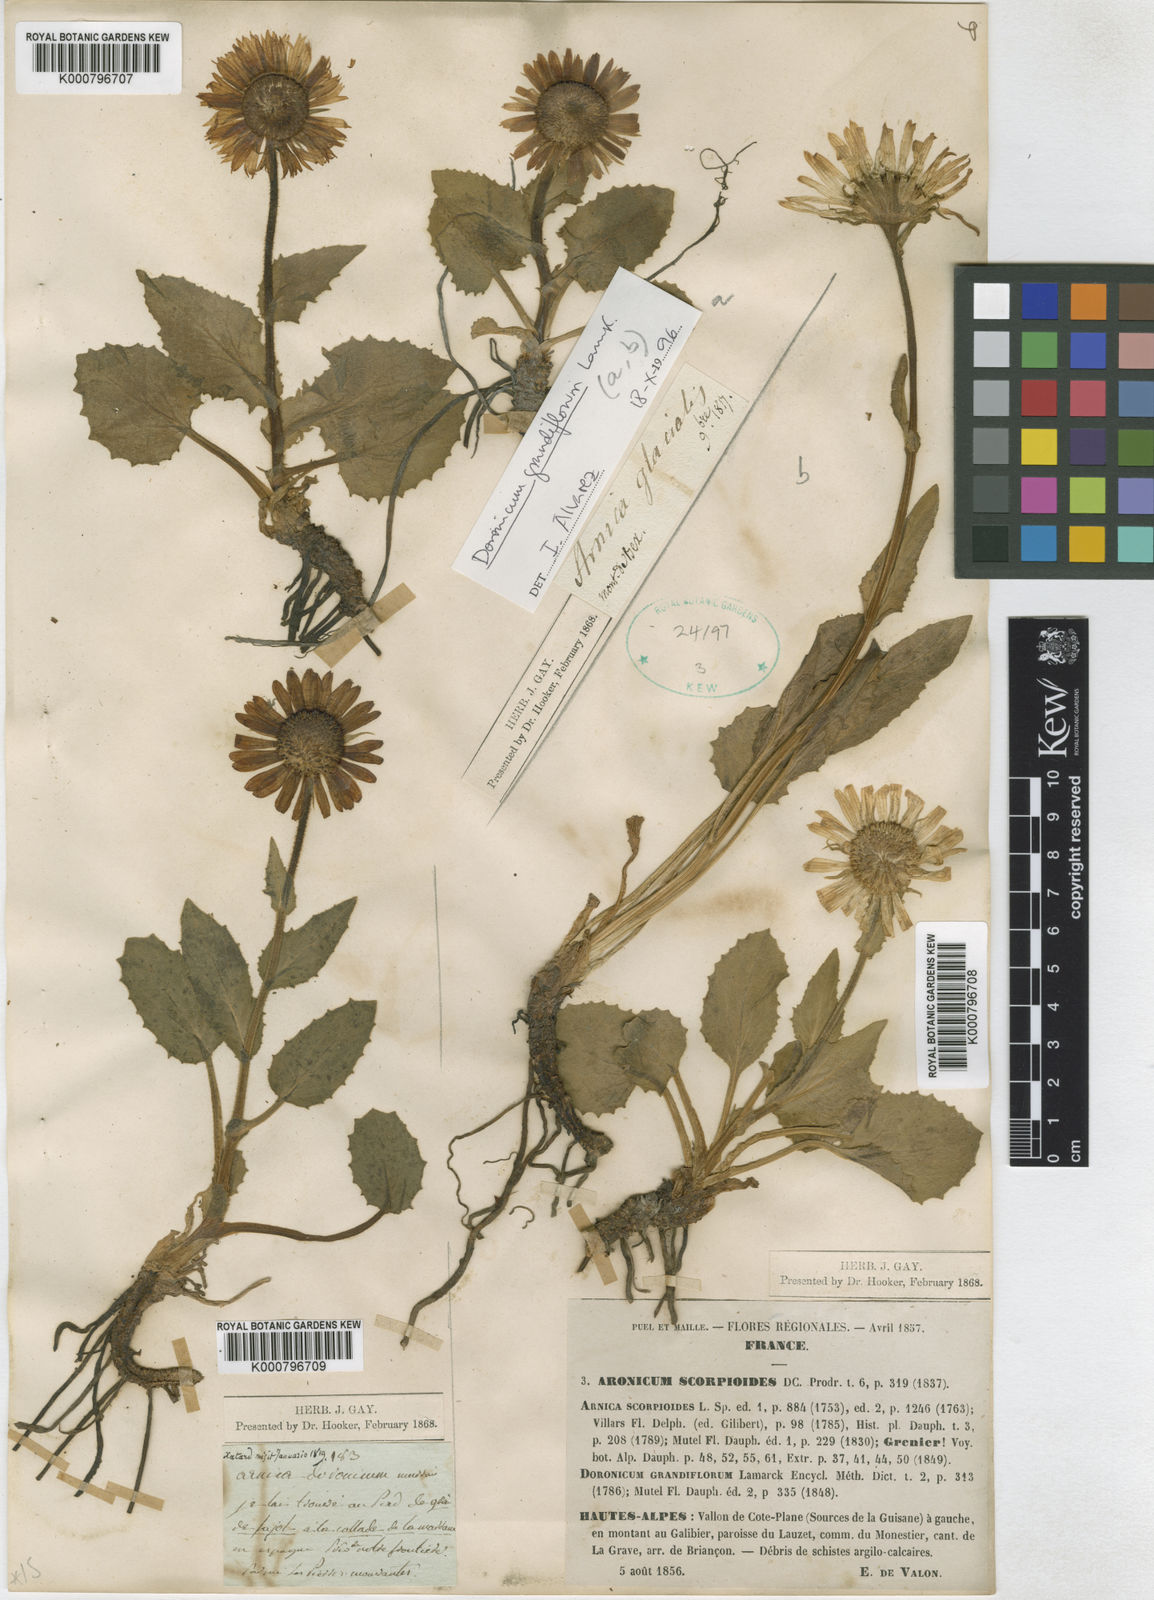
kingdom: Plantae
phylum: Tracheophyta
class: Magnoliopsida
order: Asterales
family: Asteraceae
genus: Doronicum
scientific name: Doronicum grandiflorum
